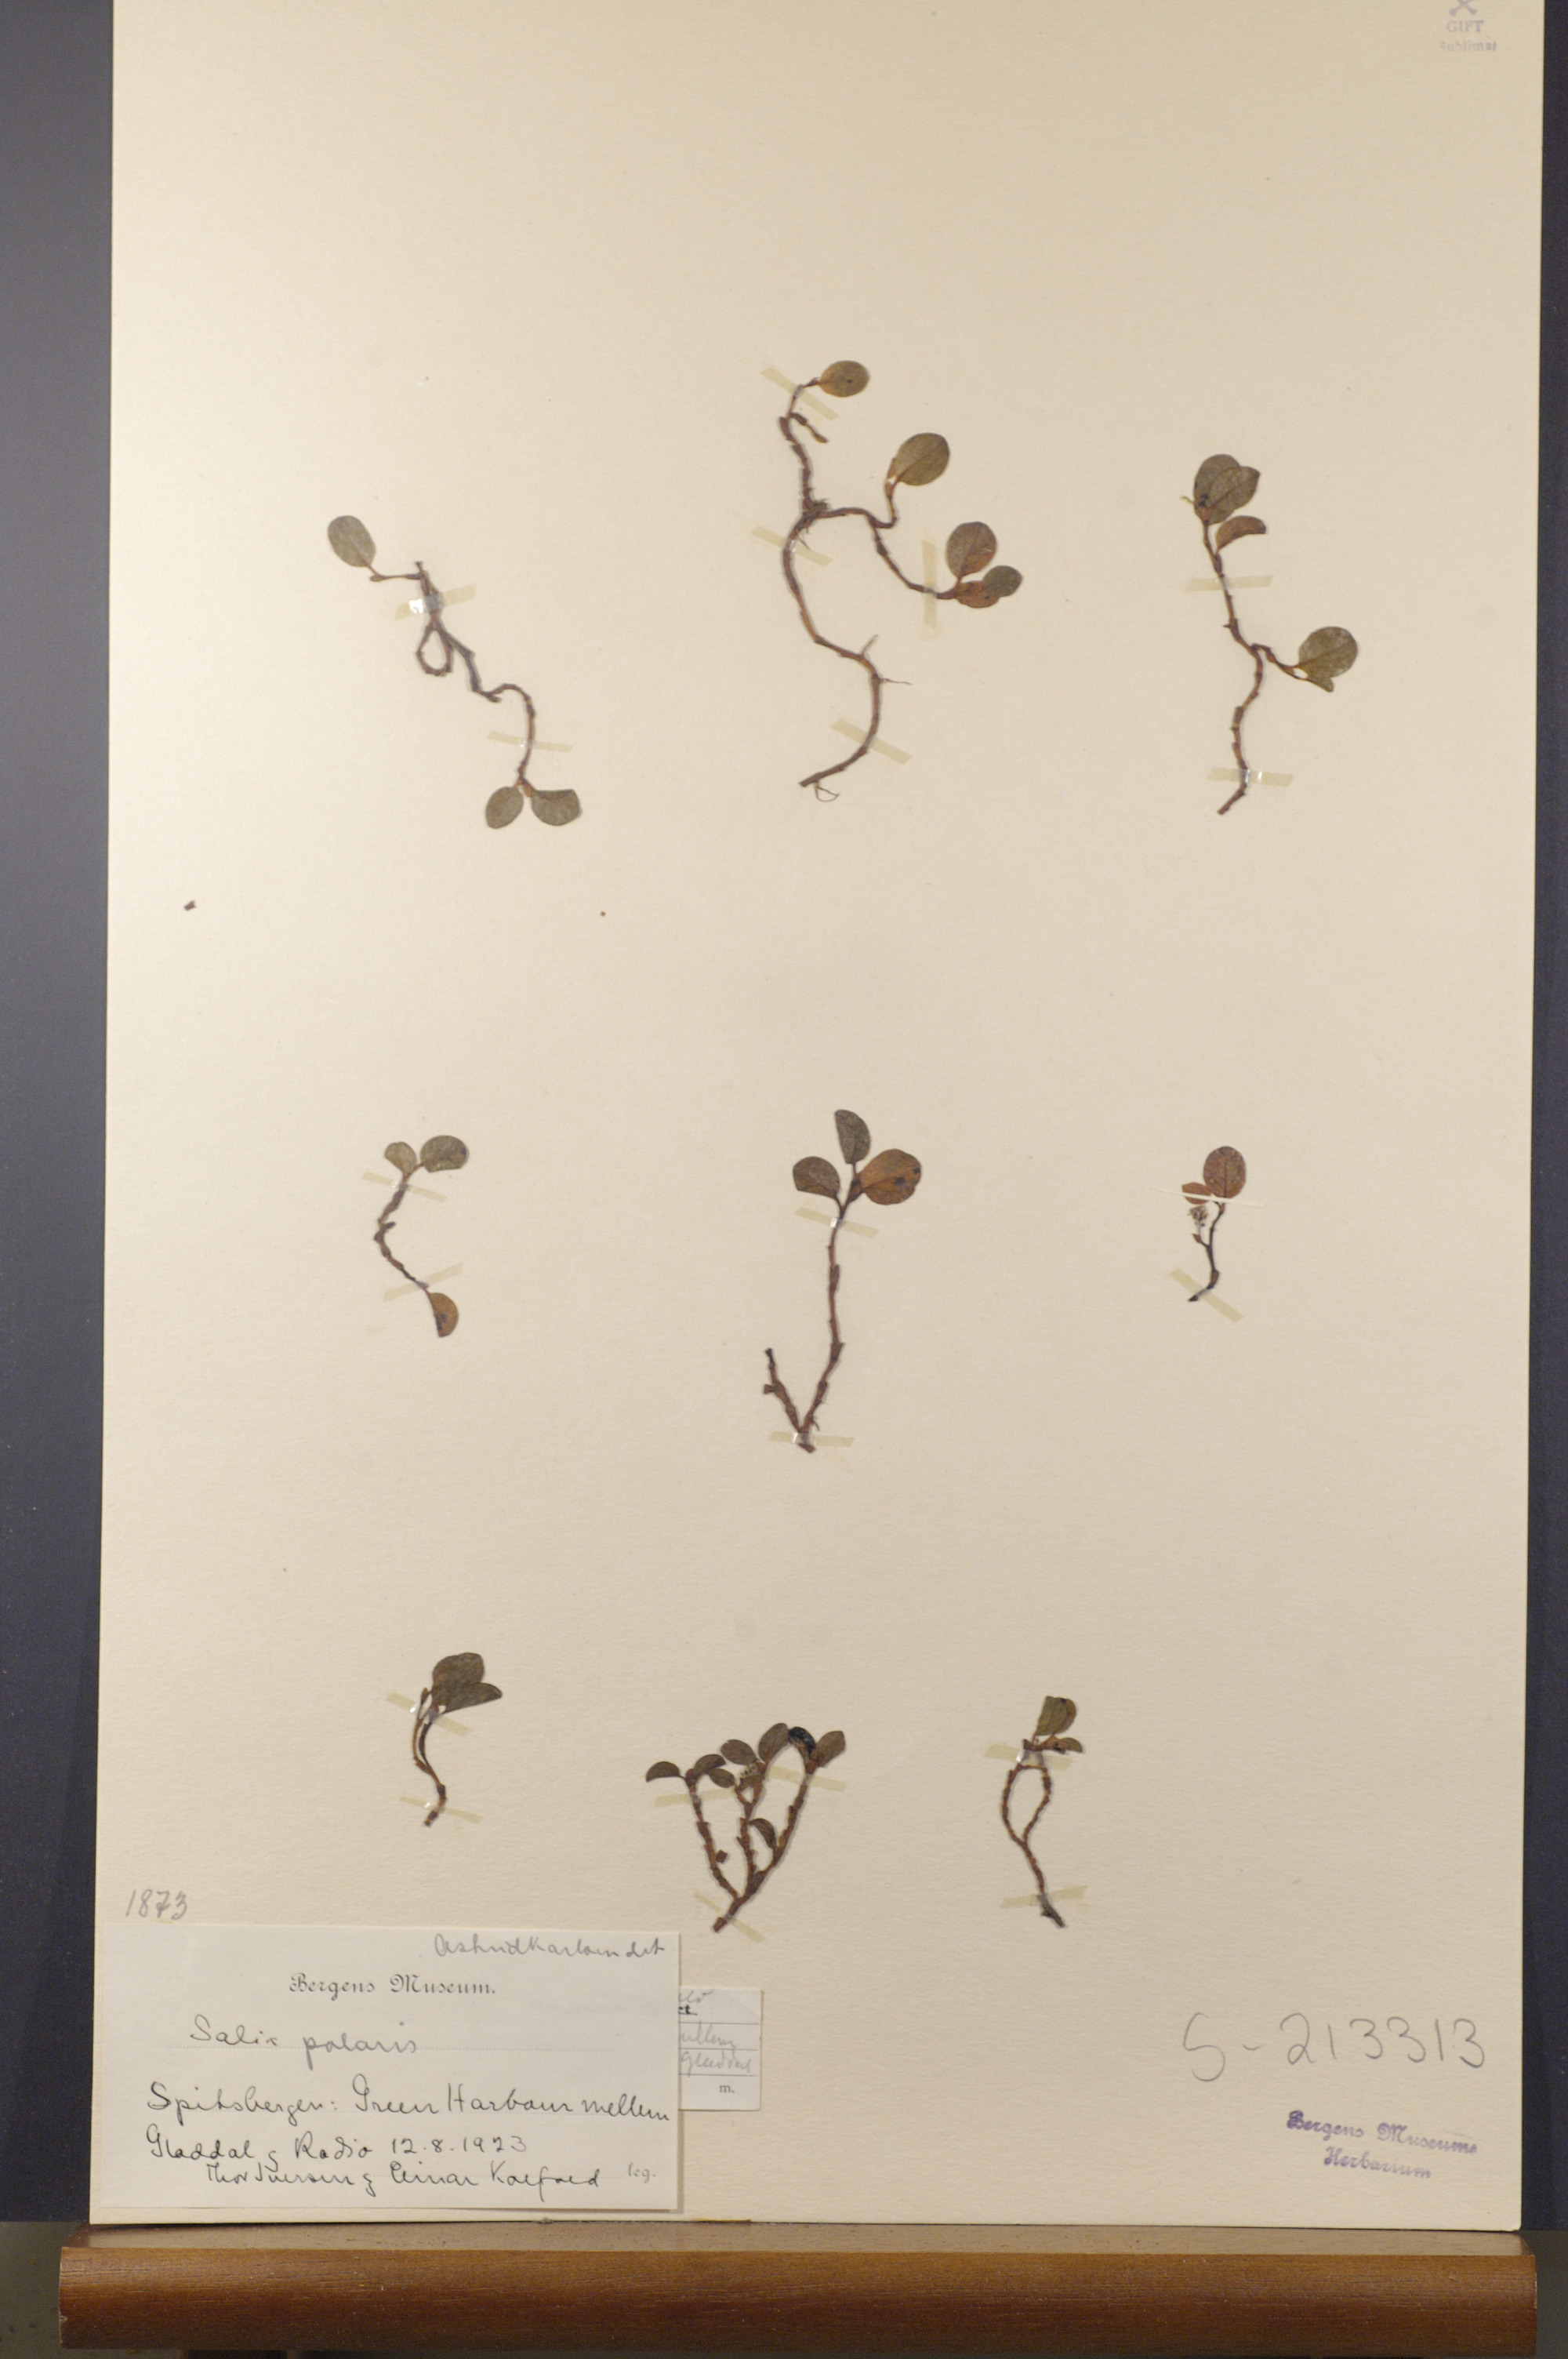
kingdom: Plantae
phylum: Tracheophyta
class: Magnoliopsida
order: Malpighiales
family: Salicaceae
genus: Salix
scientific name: Salix polaris
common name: Polar willow
